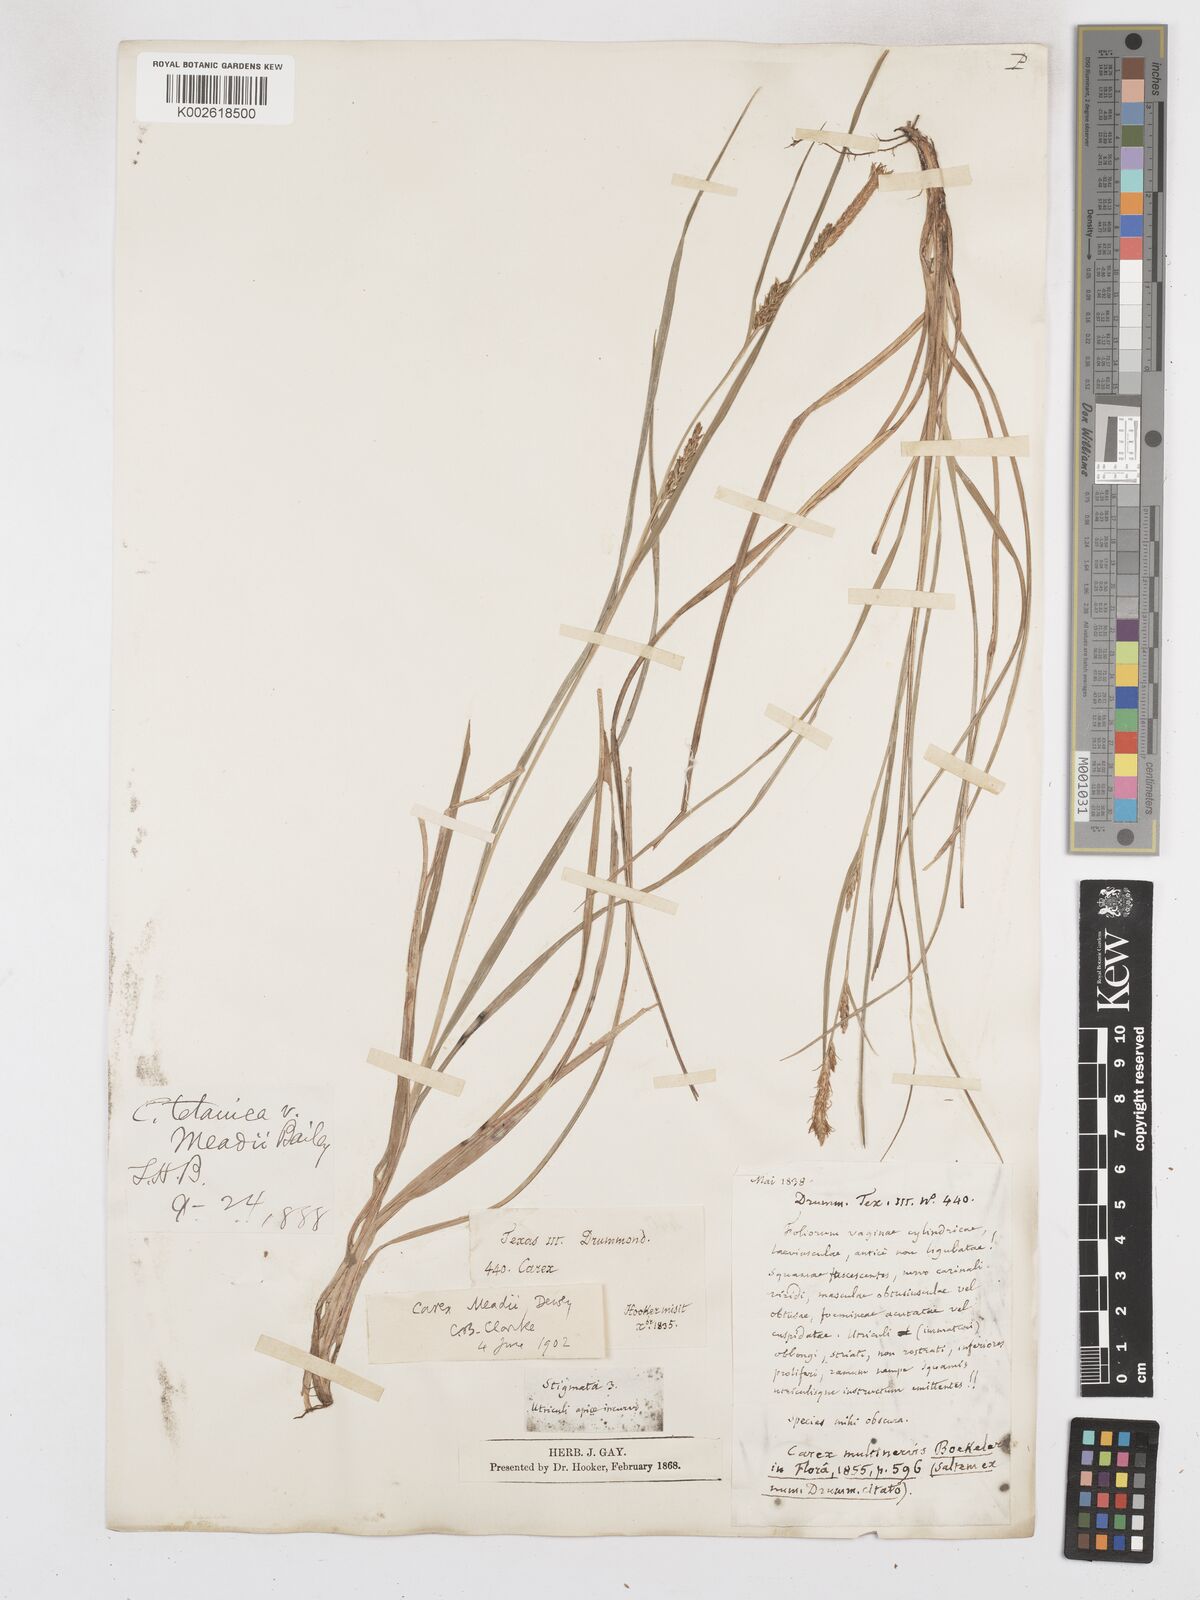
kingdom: Plantae
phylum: Tracheophyta
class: Liliopsida
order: Poales
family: Cyperaceae
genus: Carex
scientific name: Carex meadii
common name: Mead's sedge
